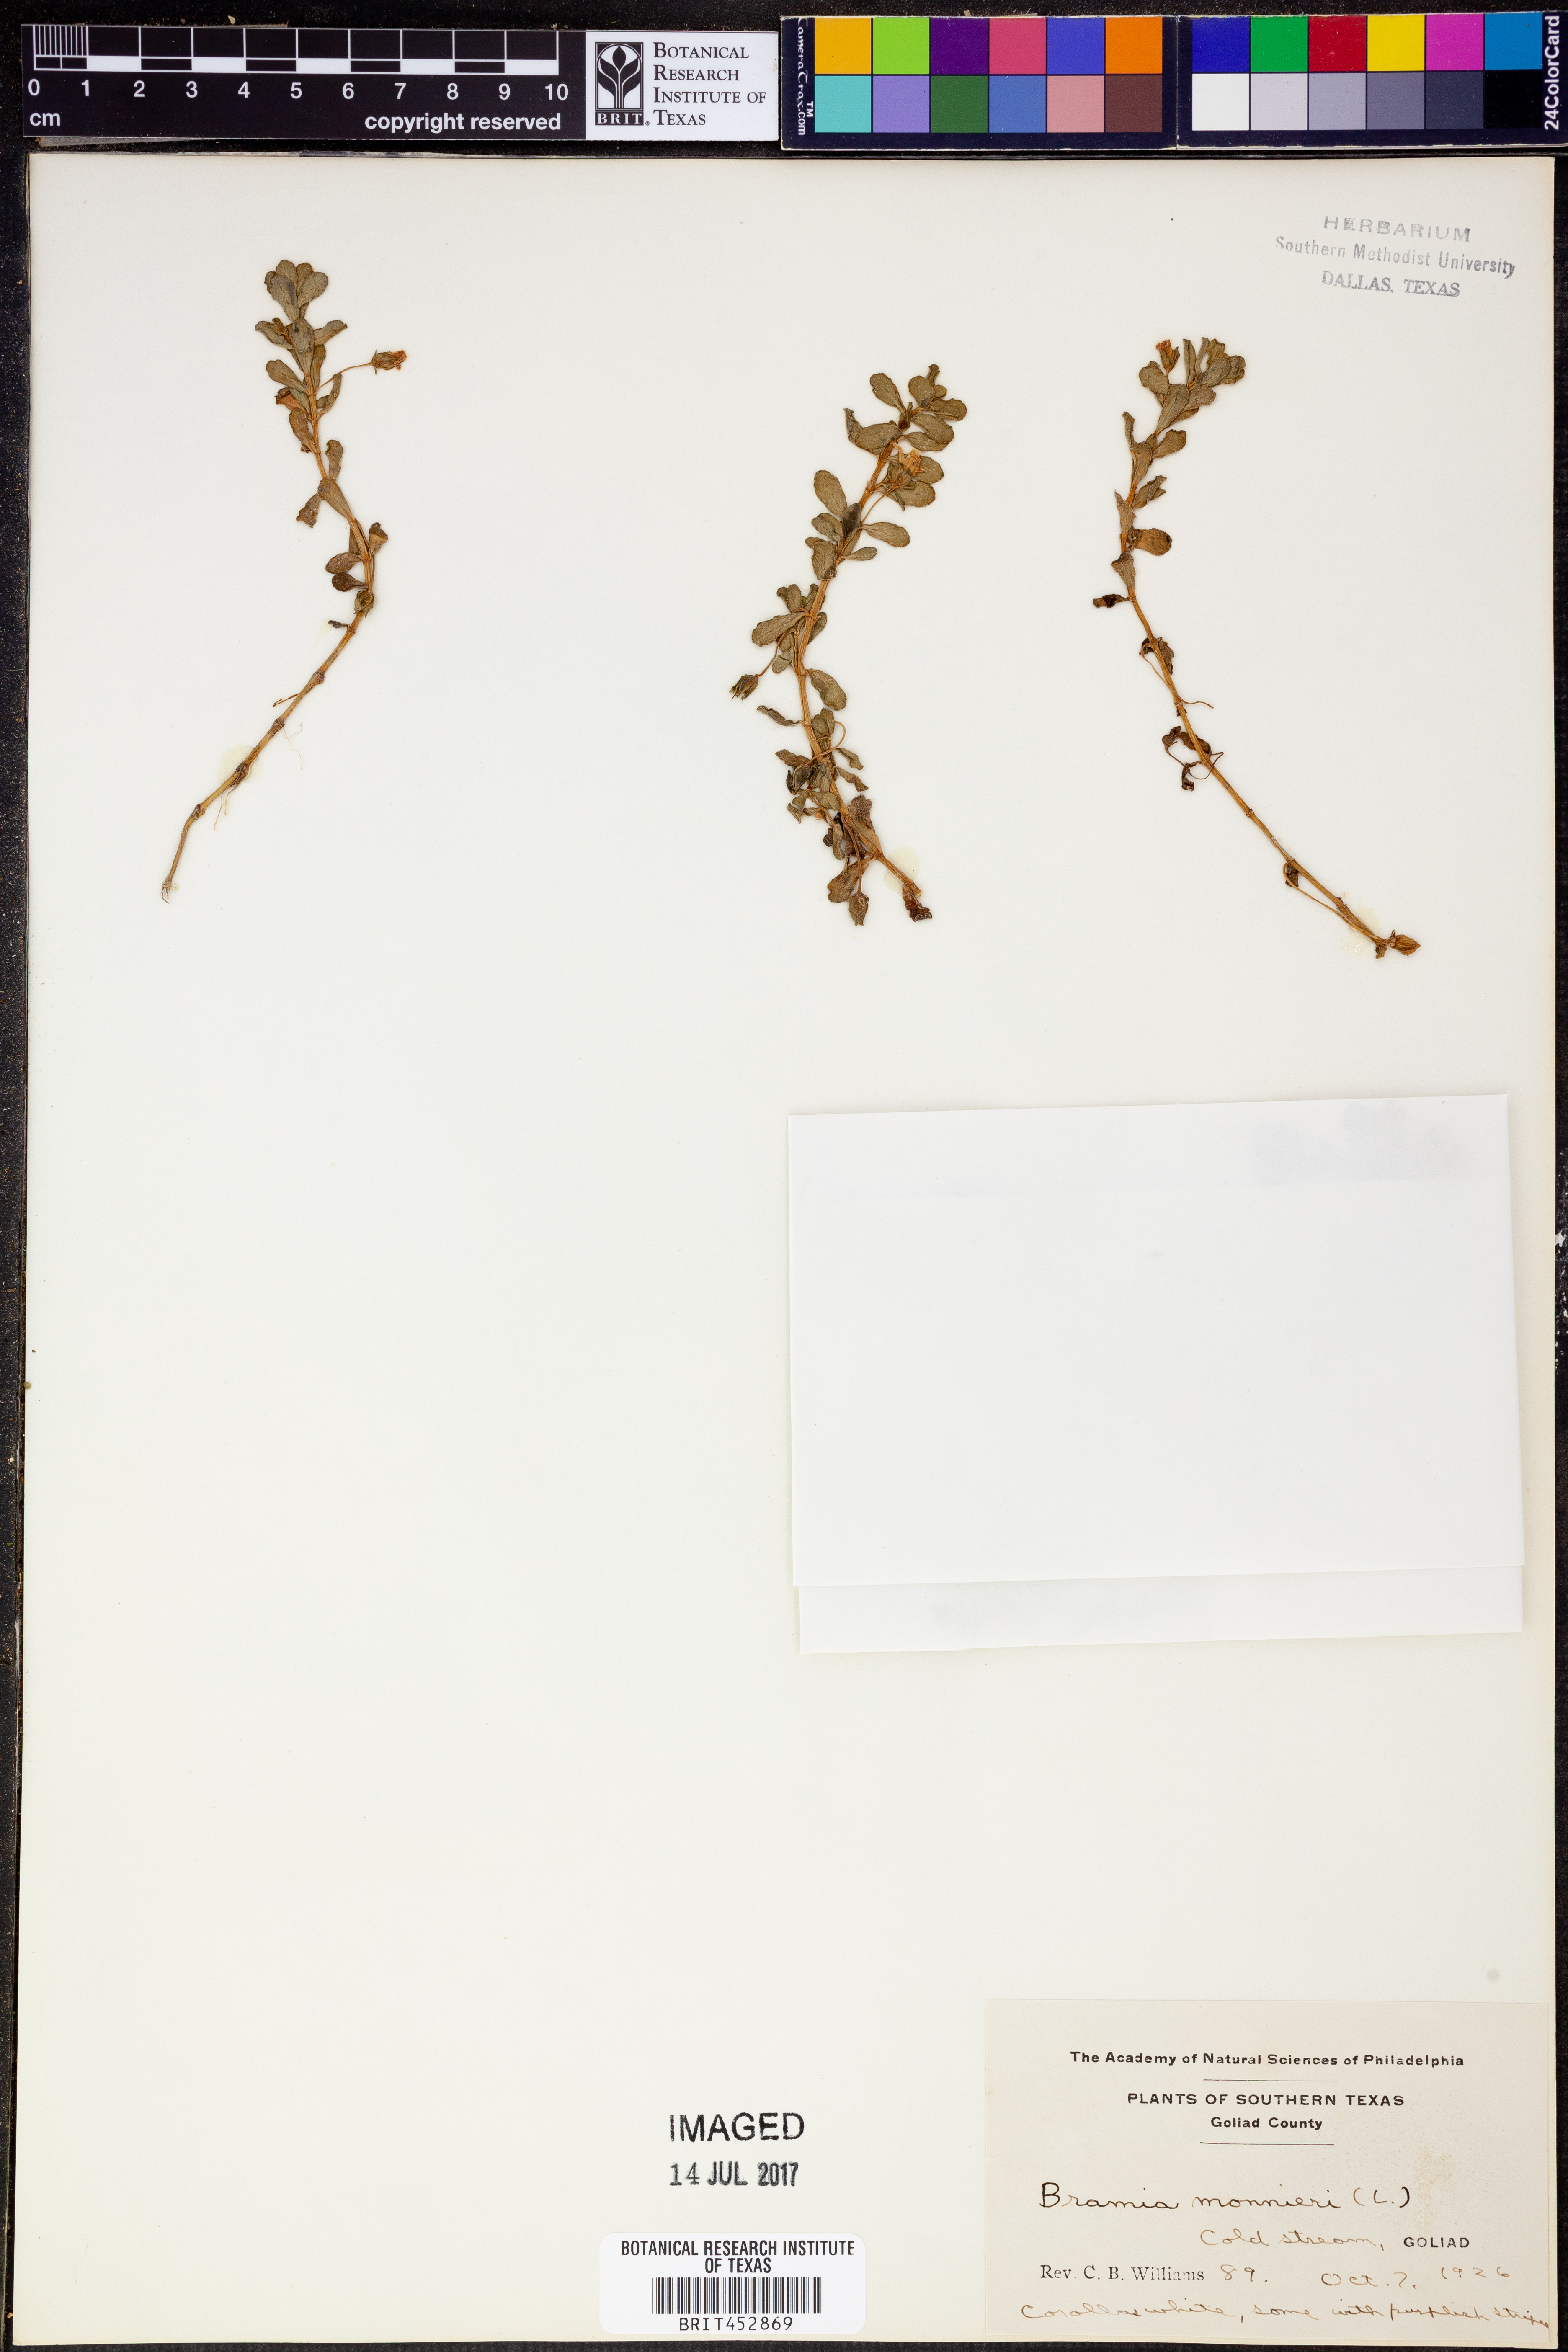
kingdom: Plantae
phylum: Tracheophyta
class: Magnoliopsida
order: Lamiales
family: Plantaginaceae
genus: Bacopa
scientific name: Bacopa monnieri
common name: Indian-pennywort
